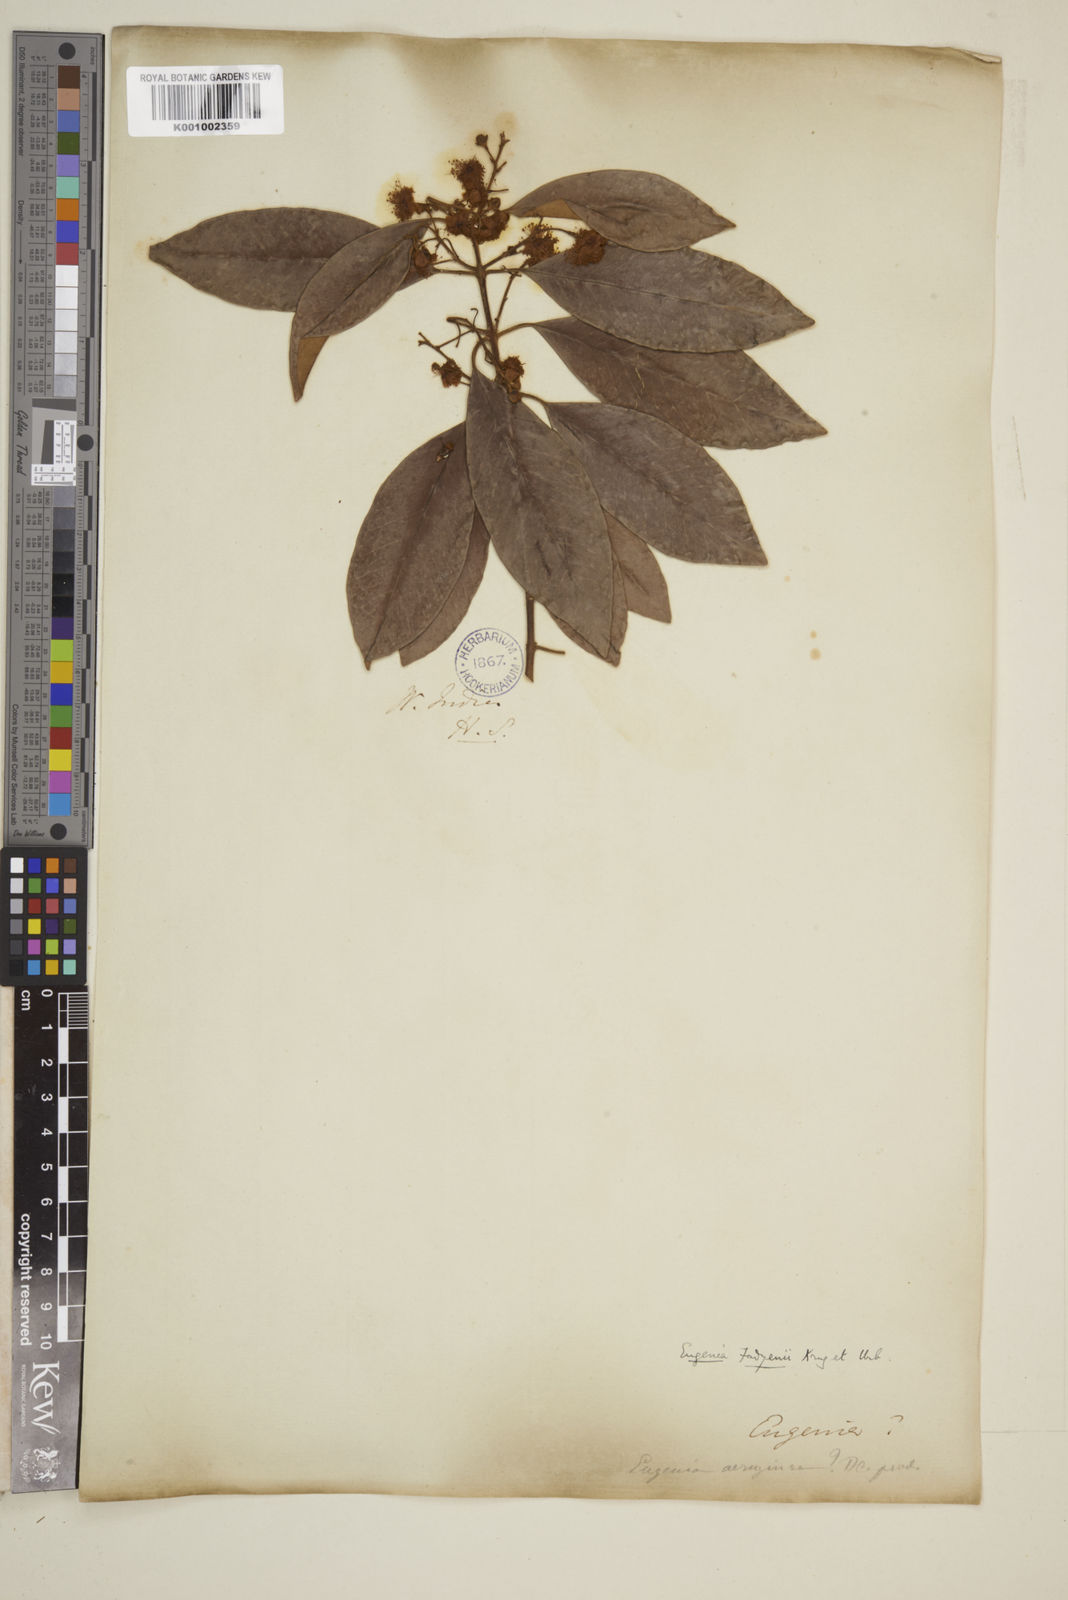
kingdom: Plantae
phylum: Tracheophyta
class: Magnoliopsida
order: Myrtales
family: Myrtaceae
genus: Eugenia
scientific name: Eugenia aeruginea
